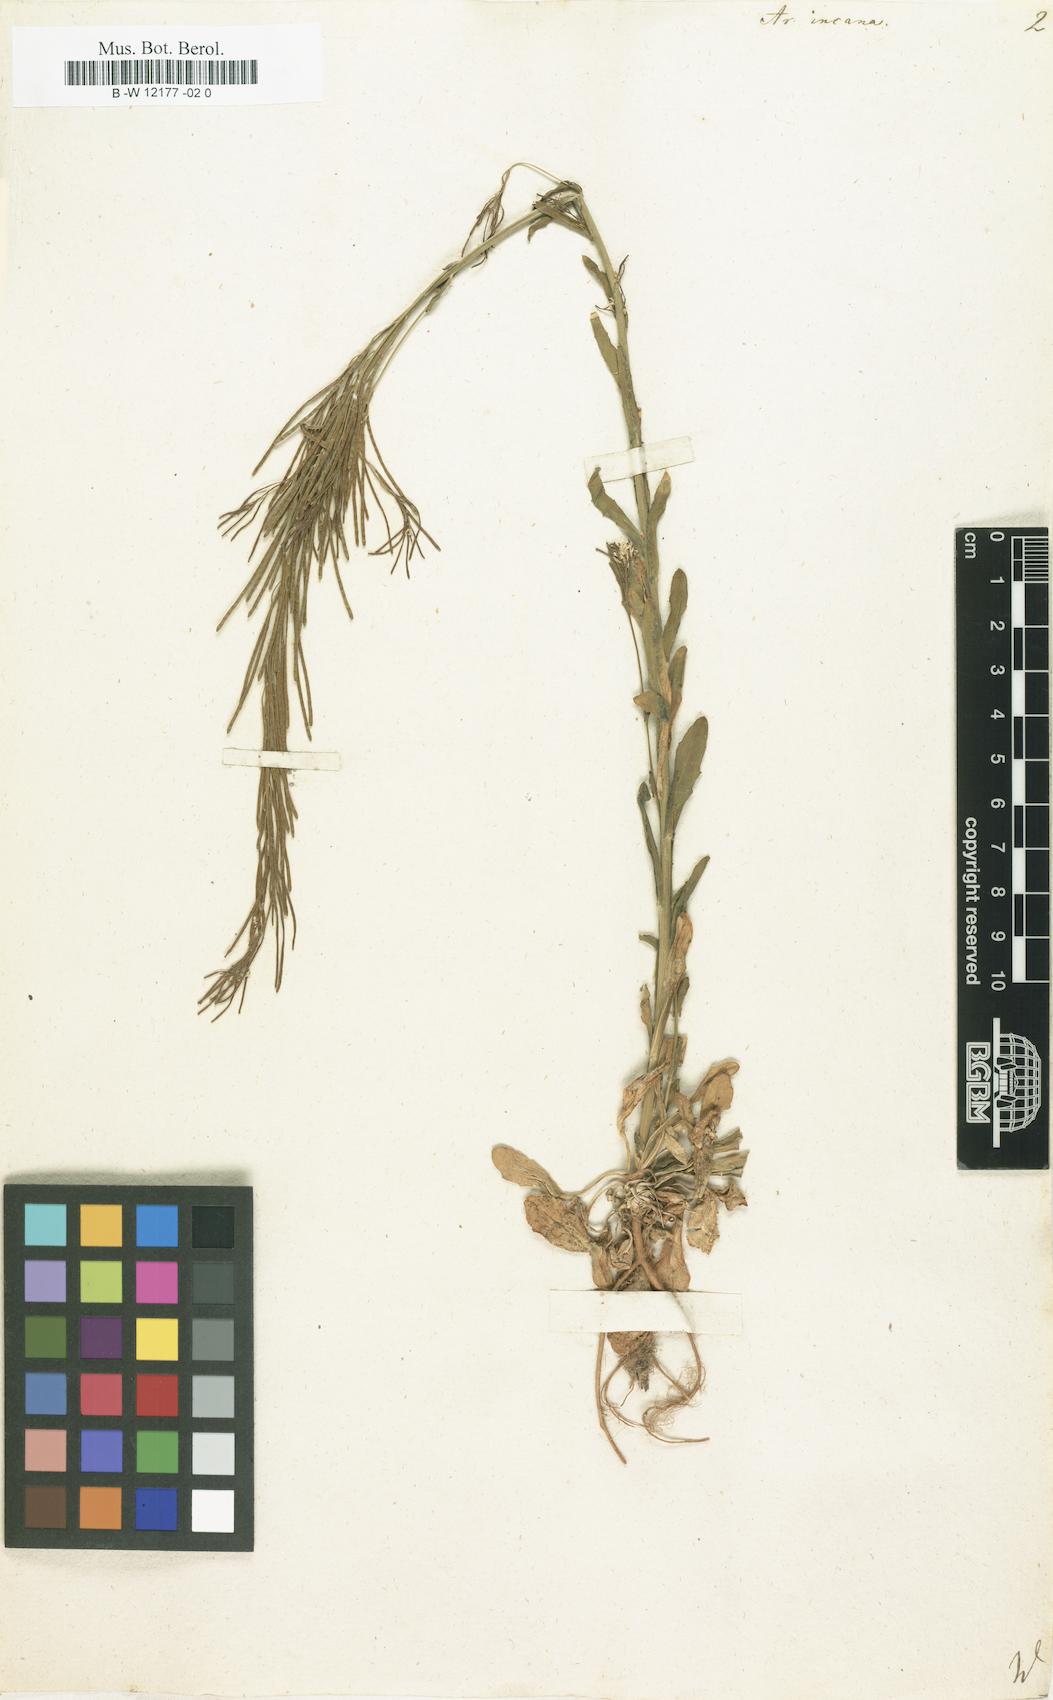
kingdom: Plantae
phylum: Tracheophyta
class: Magnoliopsida
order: Brassicales
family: Brassicaceae
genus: Arabis
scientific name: Arabis incana
